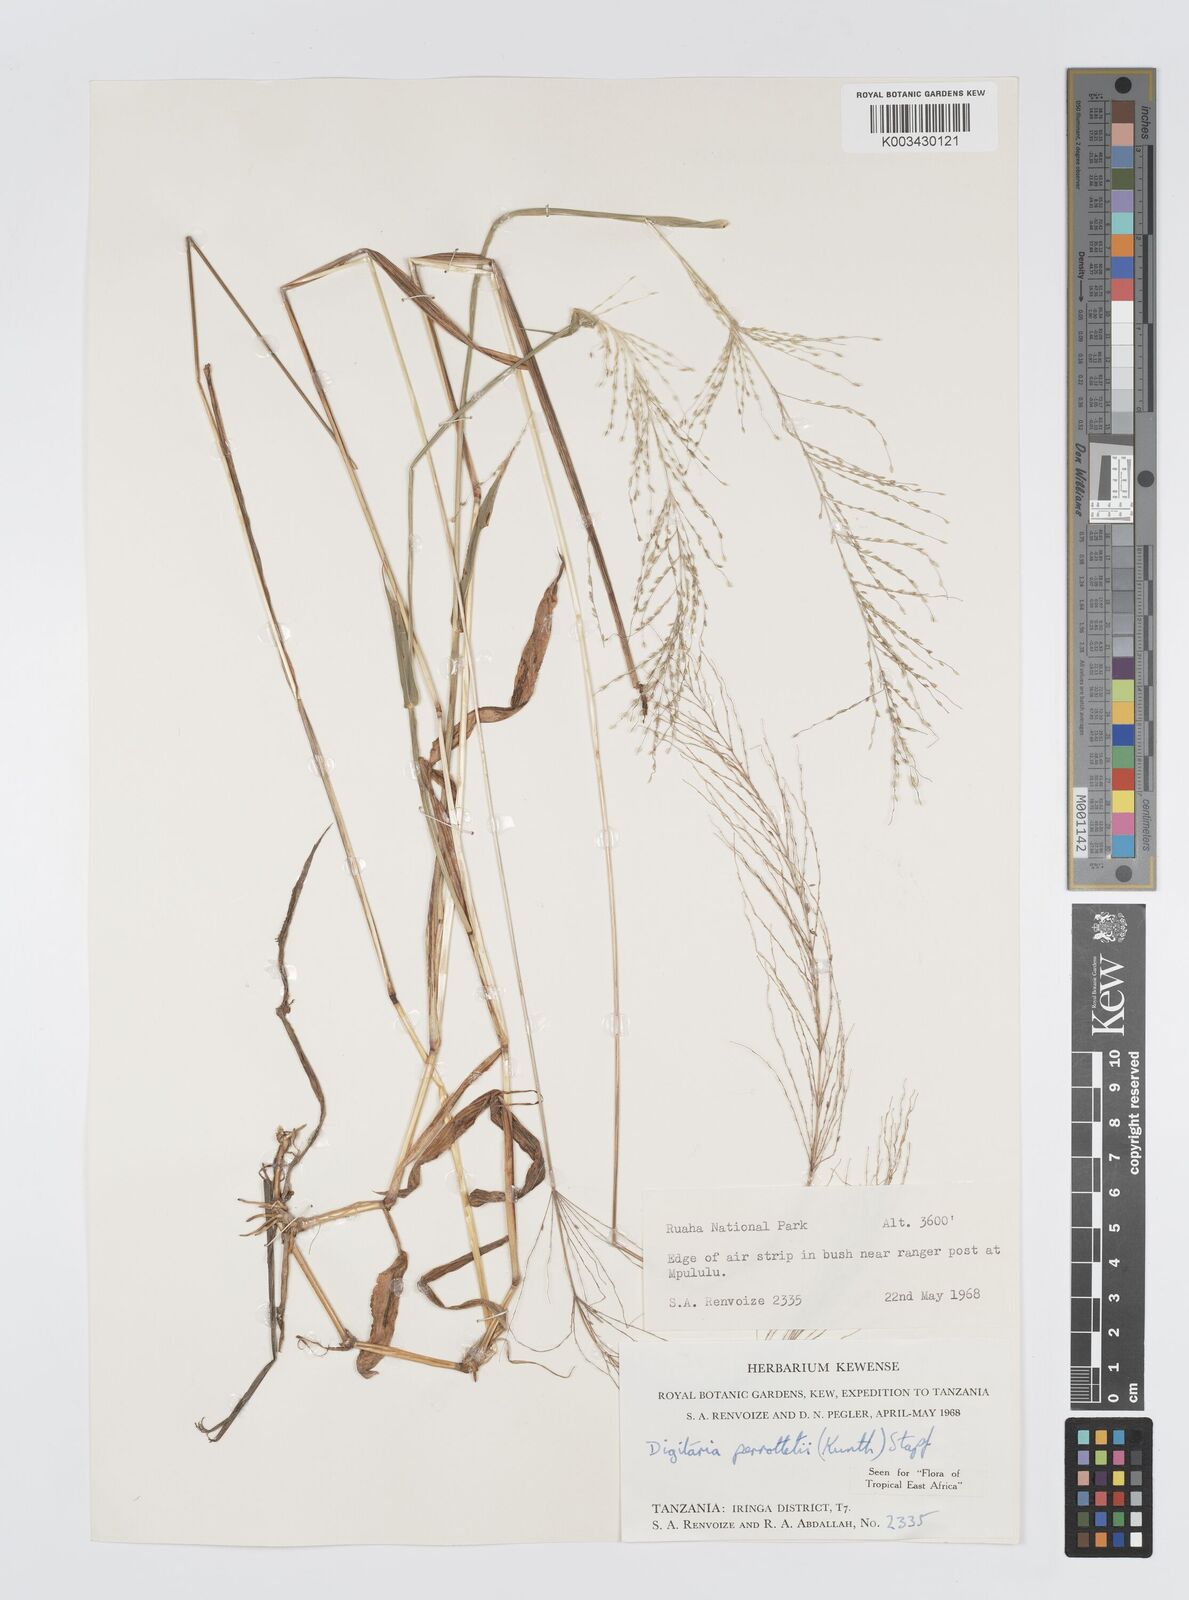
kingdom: Plantae
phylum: Tracheophyta
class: Liliopsida
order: Poales
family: Poaceae
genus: Digitaria
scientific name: Digitaria perrottetii
